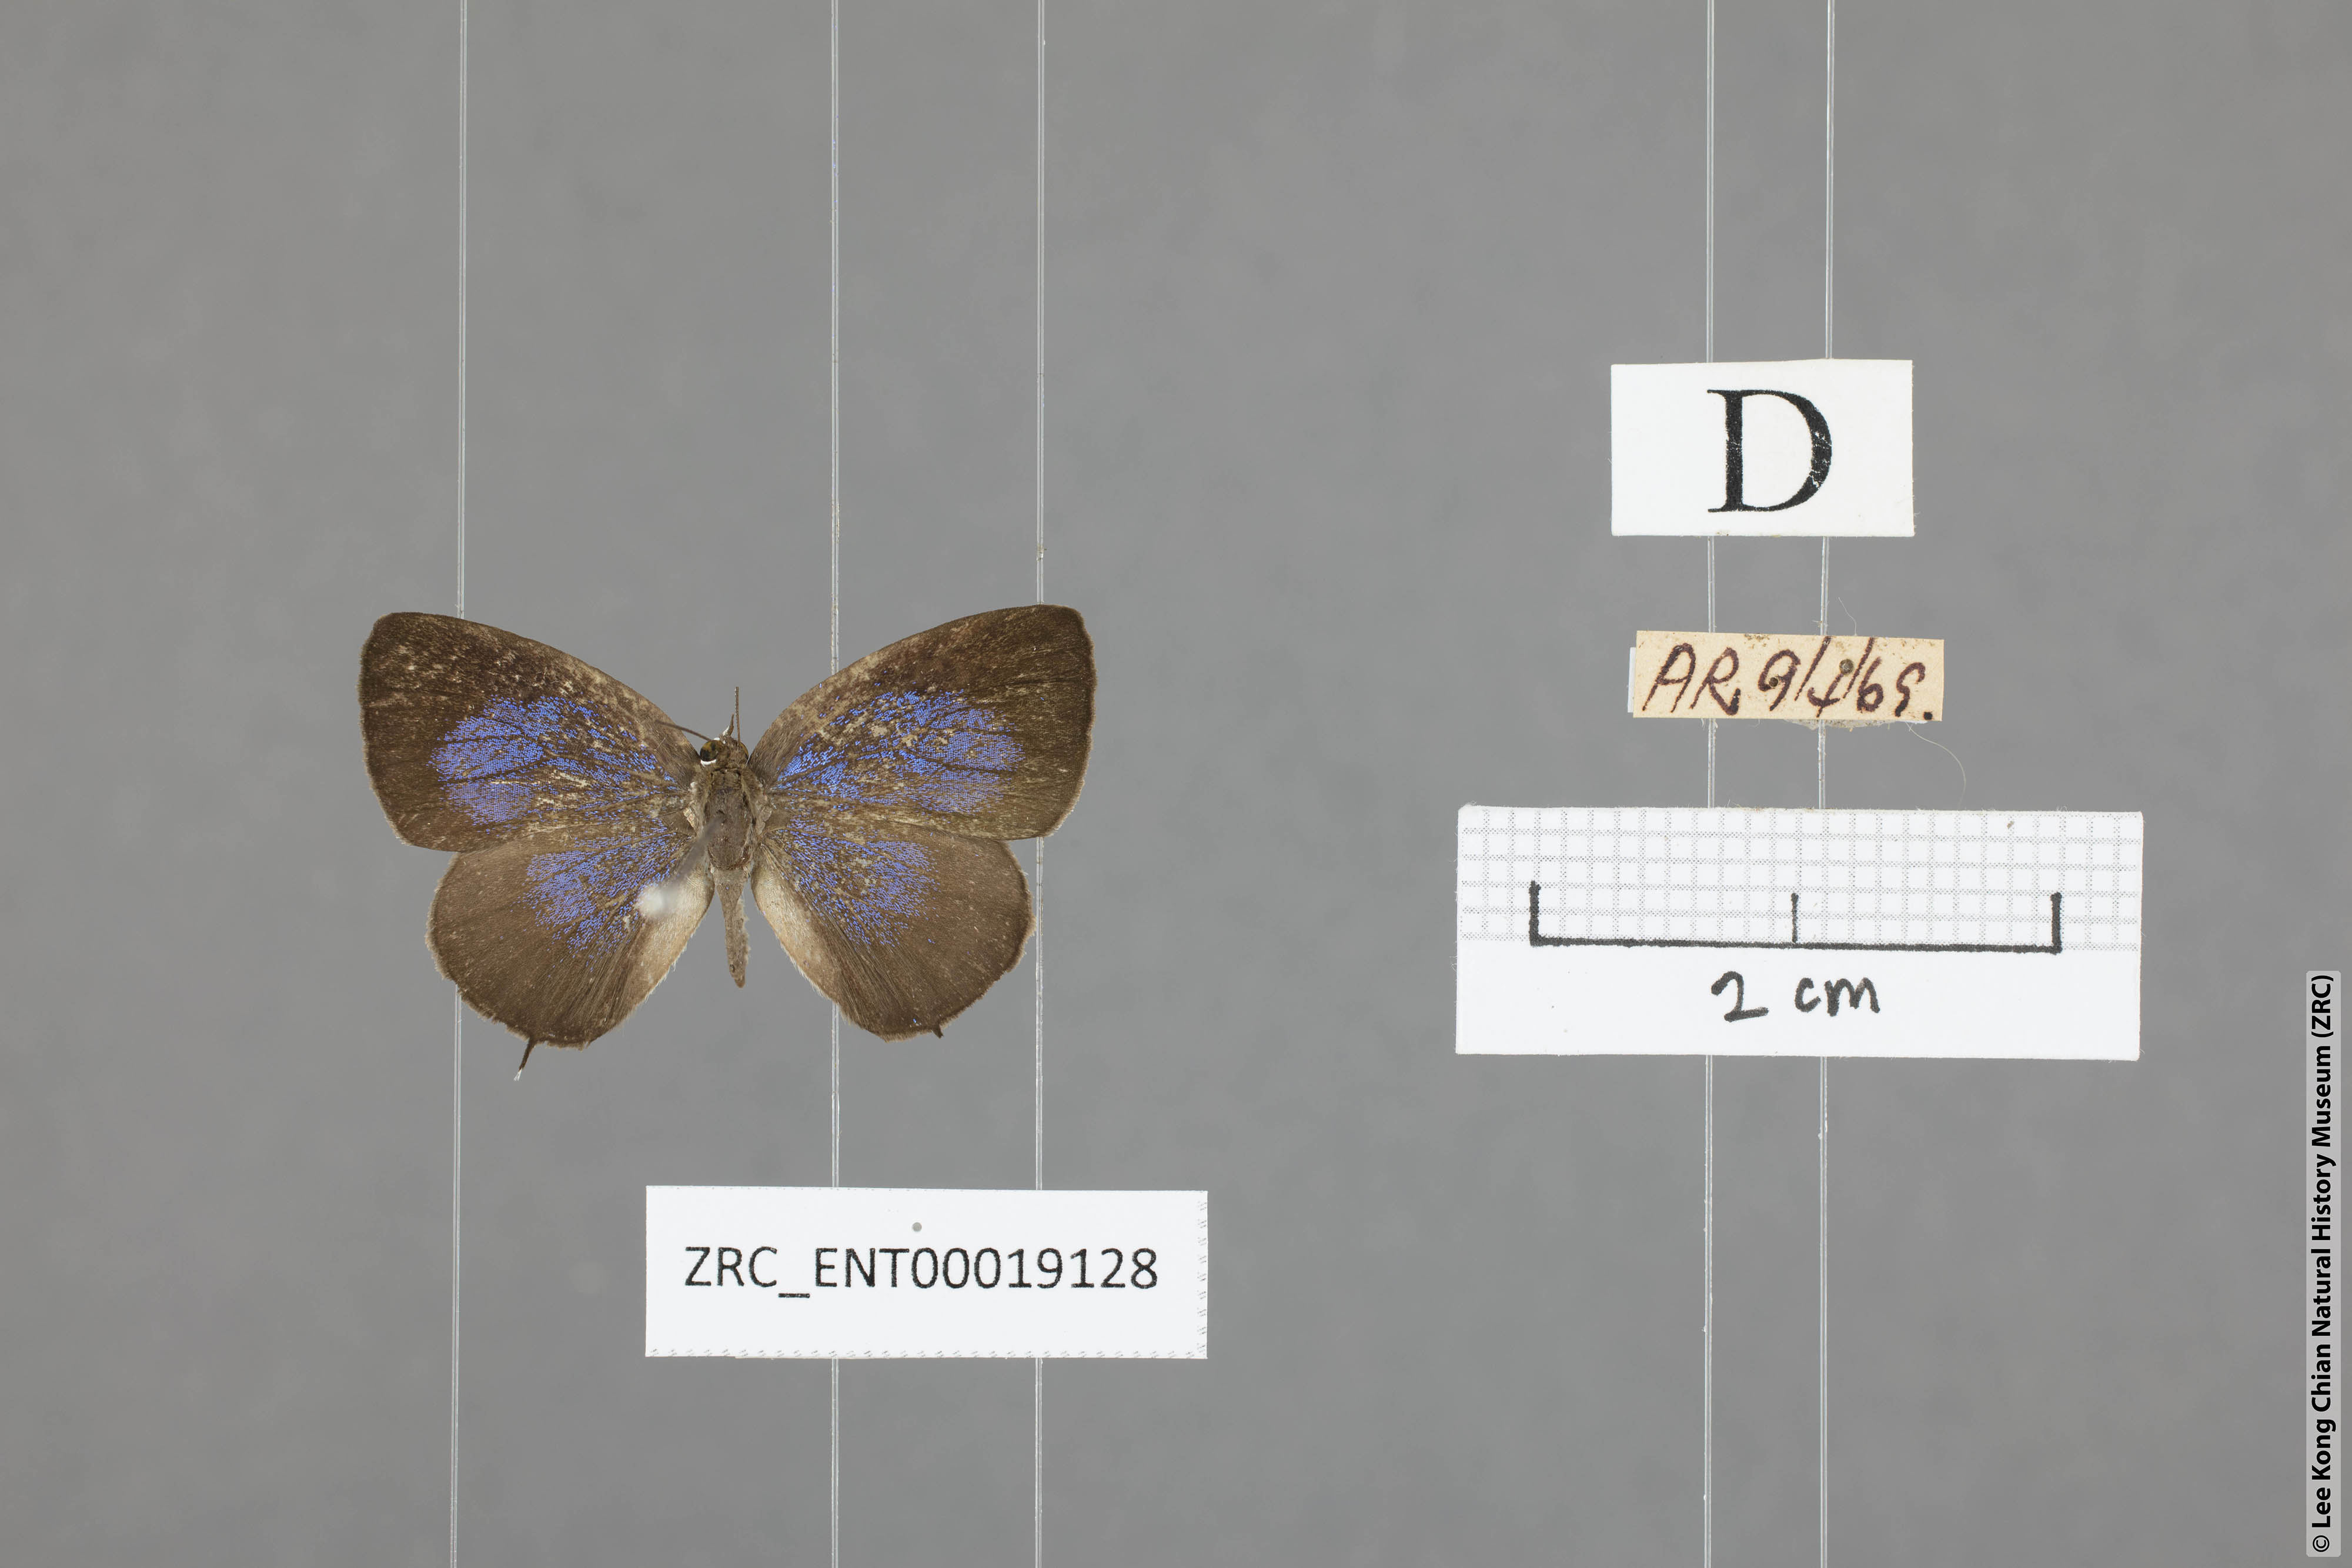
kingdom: Animalia
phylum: Arthropoda
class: Insecta
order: Lepidoptera
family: Lycaenidae
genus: Arhopala
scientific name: Arhopala ammonides
